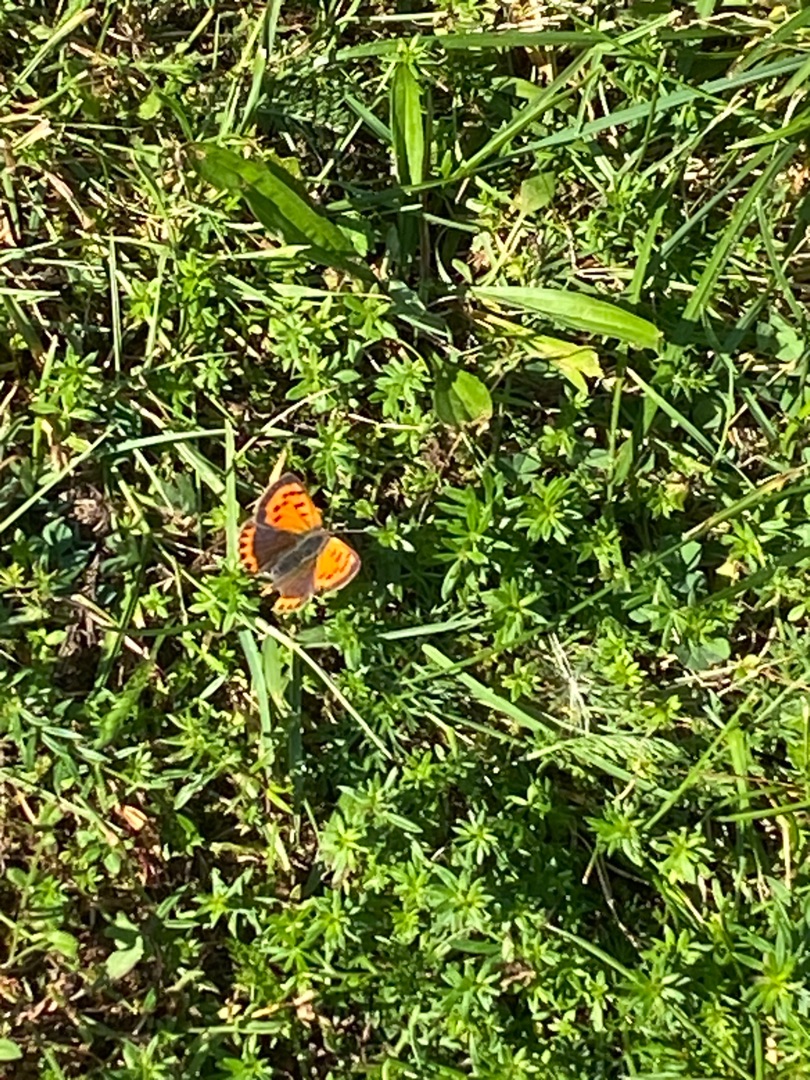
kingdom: Animalia
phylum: Arthropoda
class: Insecta
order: Lepidoptera
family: Lycaenidae
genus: Lycaena
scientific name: Lycaena phlaeas
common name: Lille ildfugl
